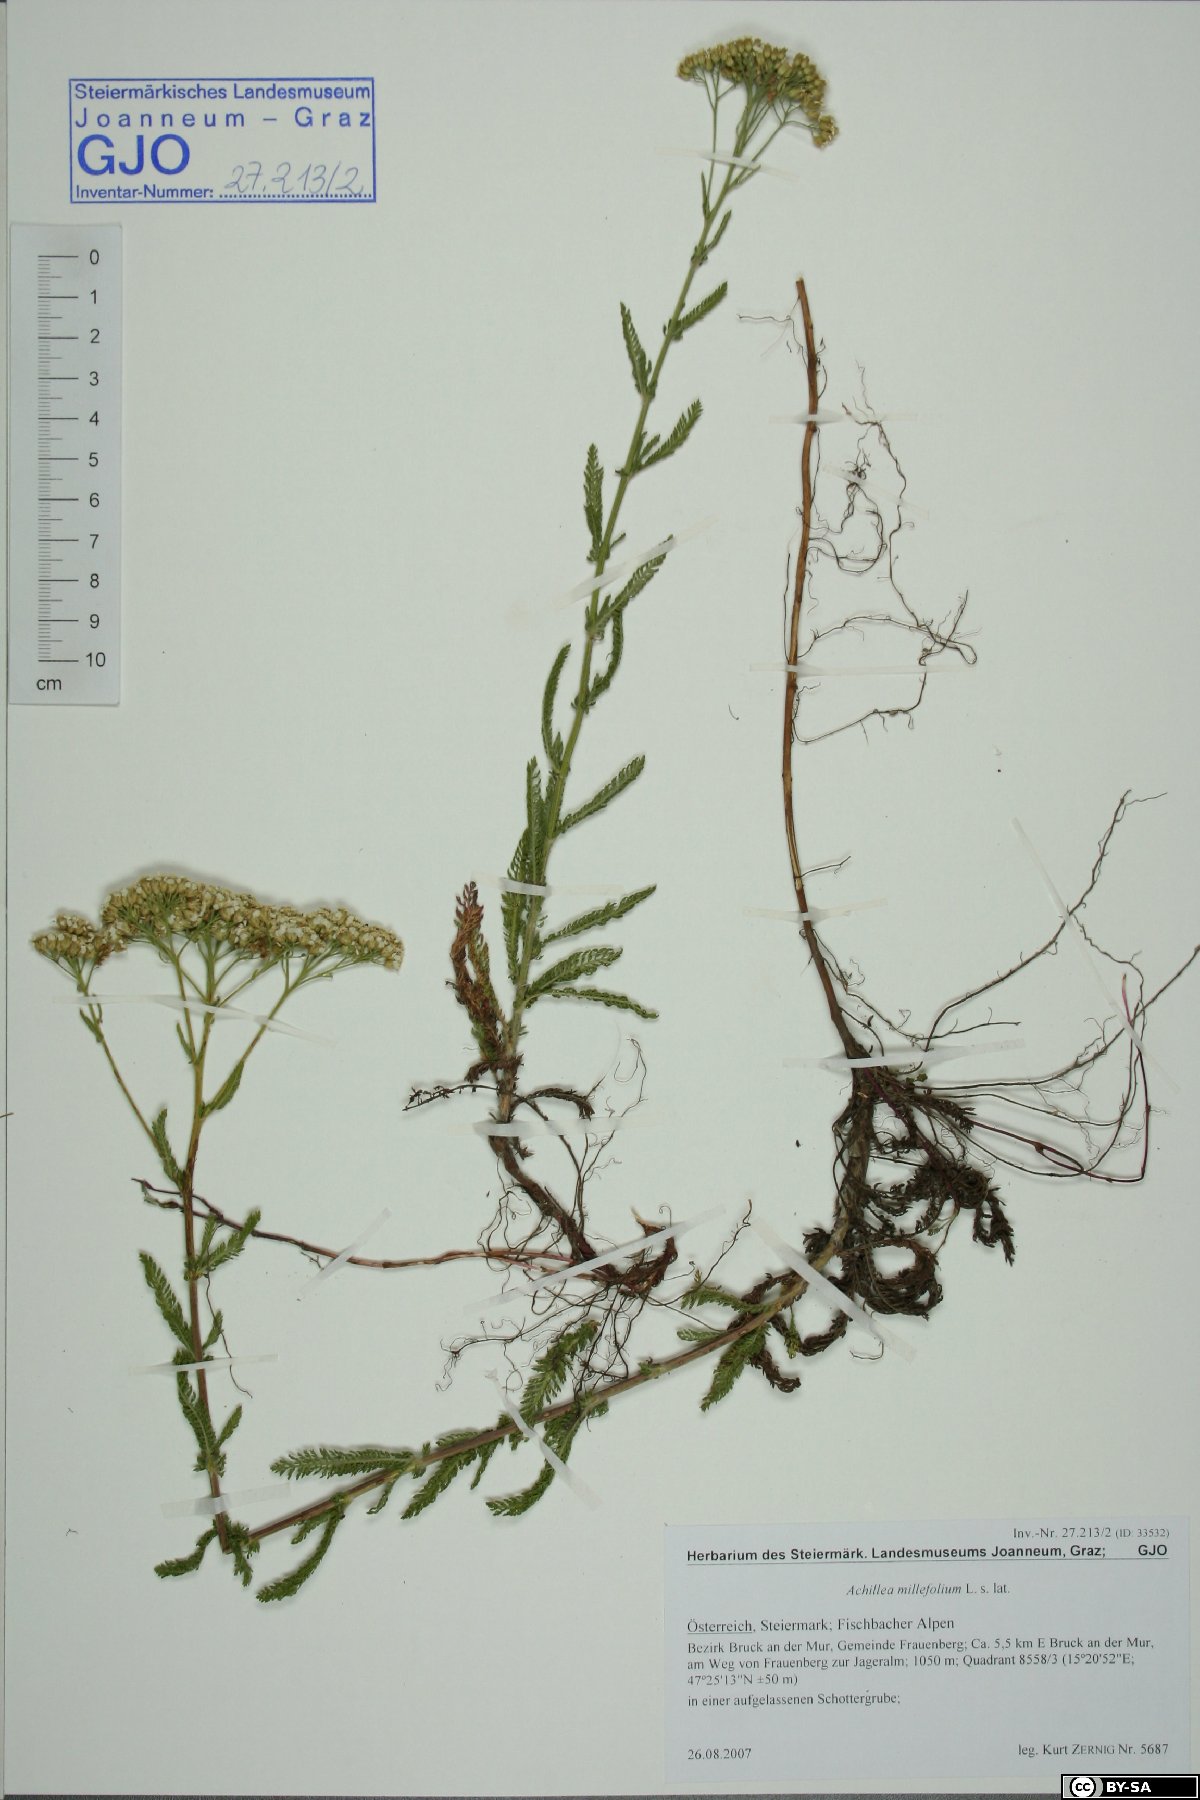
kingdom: Plantae
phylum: Tracheophyta
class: Magnoliopsida
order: Asterales
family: Asteraceae
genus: Achillea
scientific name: Achillea millefolium
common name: Yarrow
